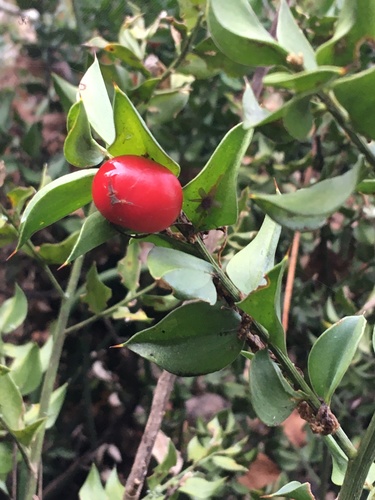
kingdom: Plantae
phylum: Tracheophyta
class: Liliopsida
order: Asparagales
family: Asparagaceae
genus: Ruscus
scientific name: Ruscus aculeatus
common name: Butcher's-broom
